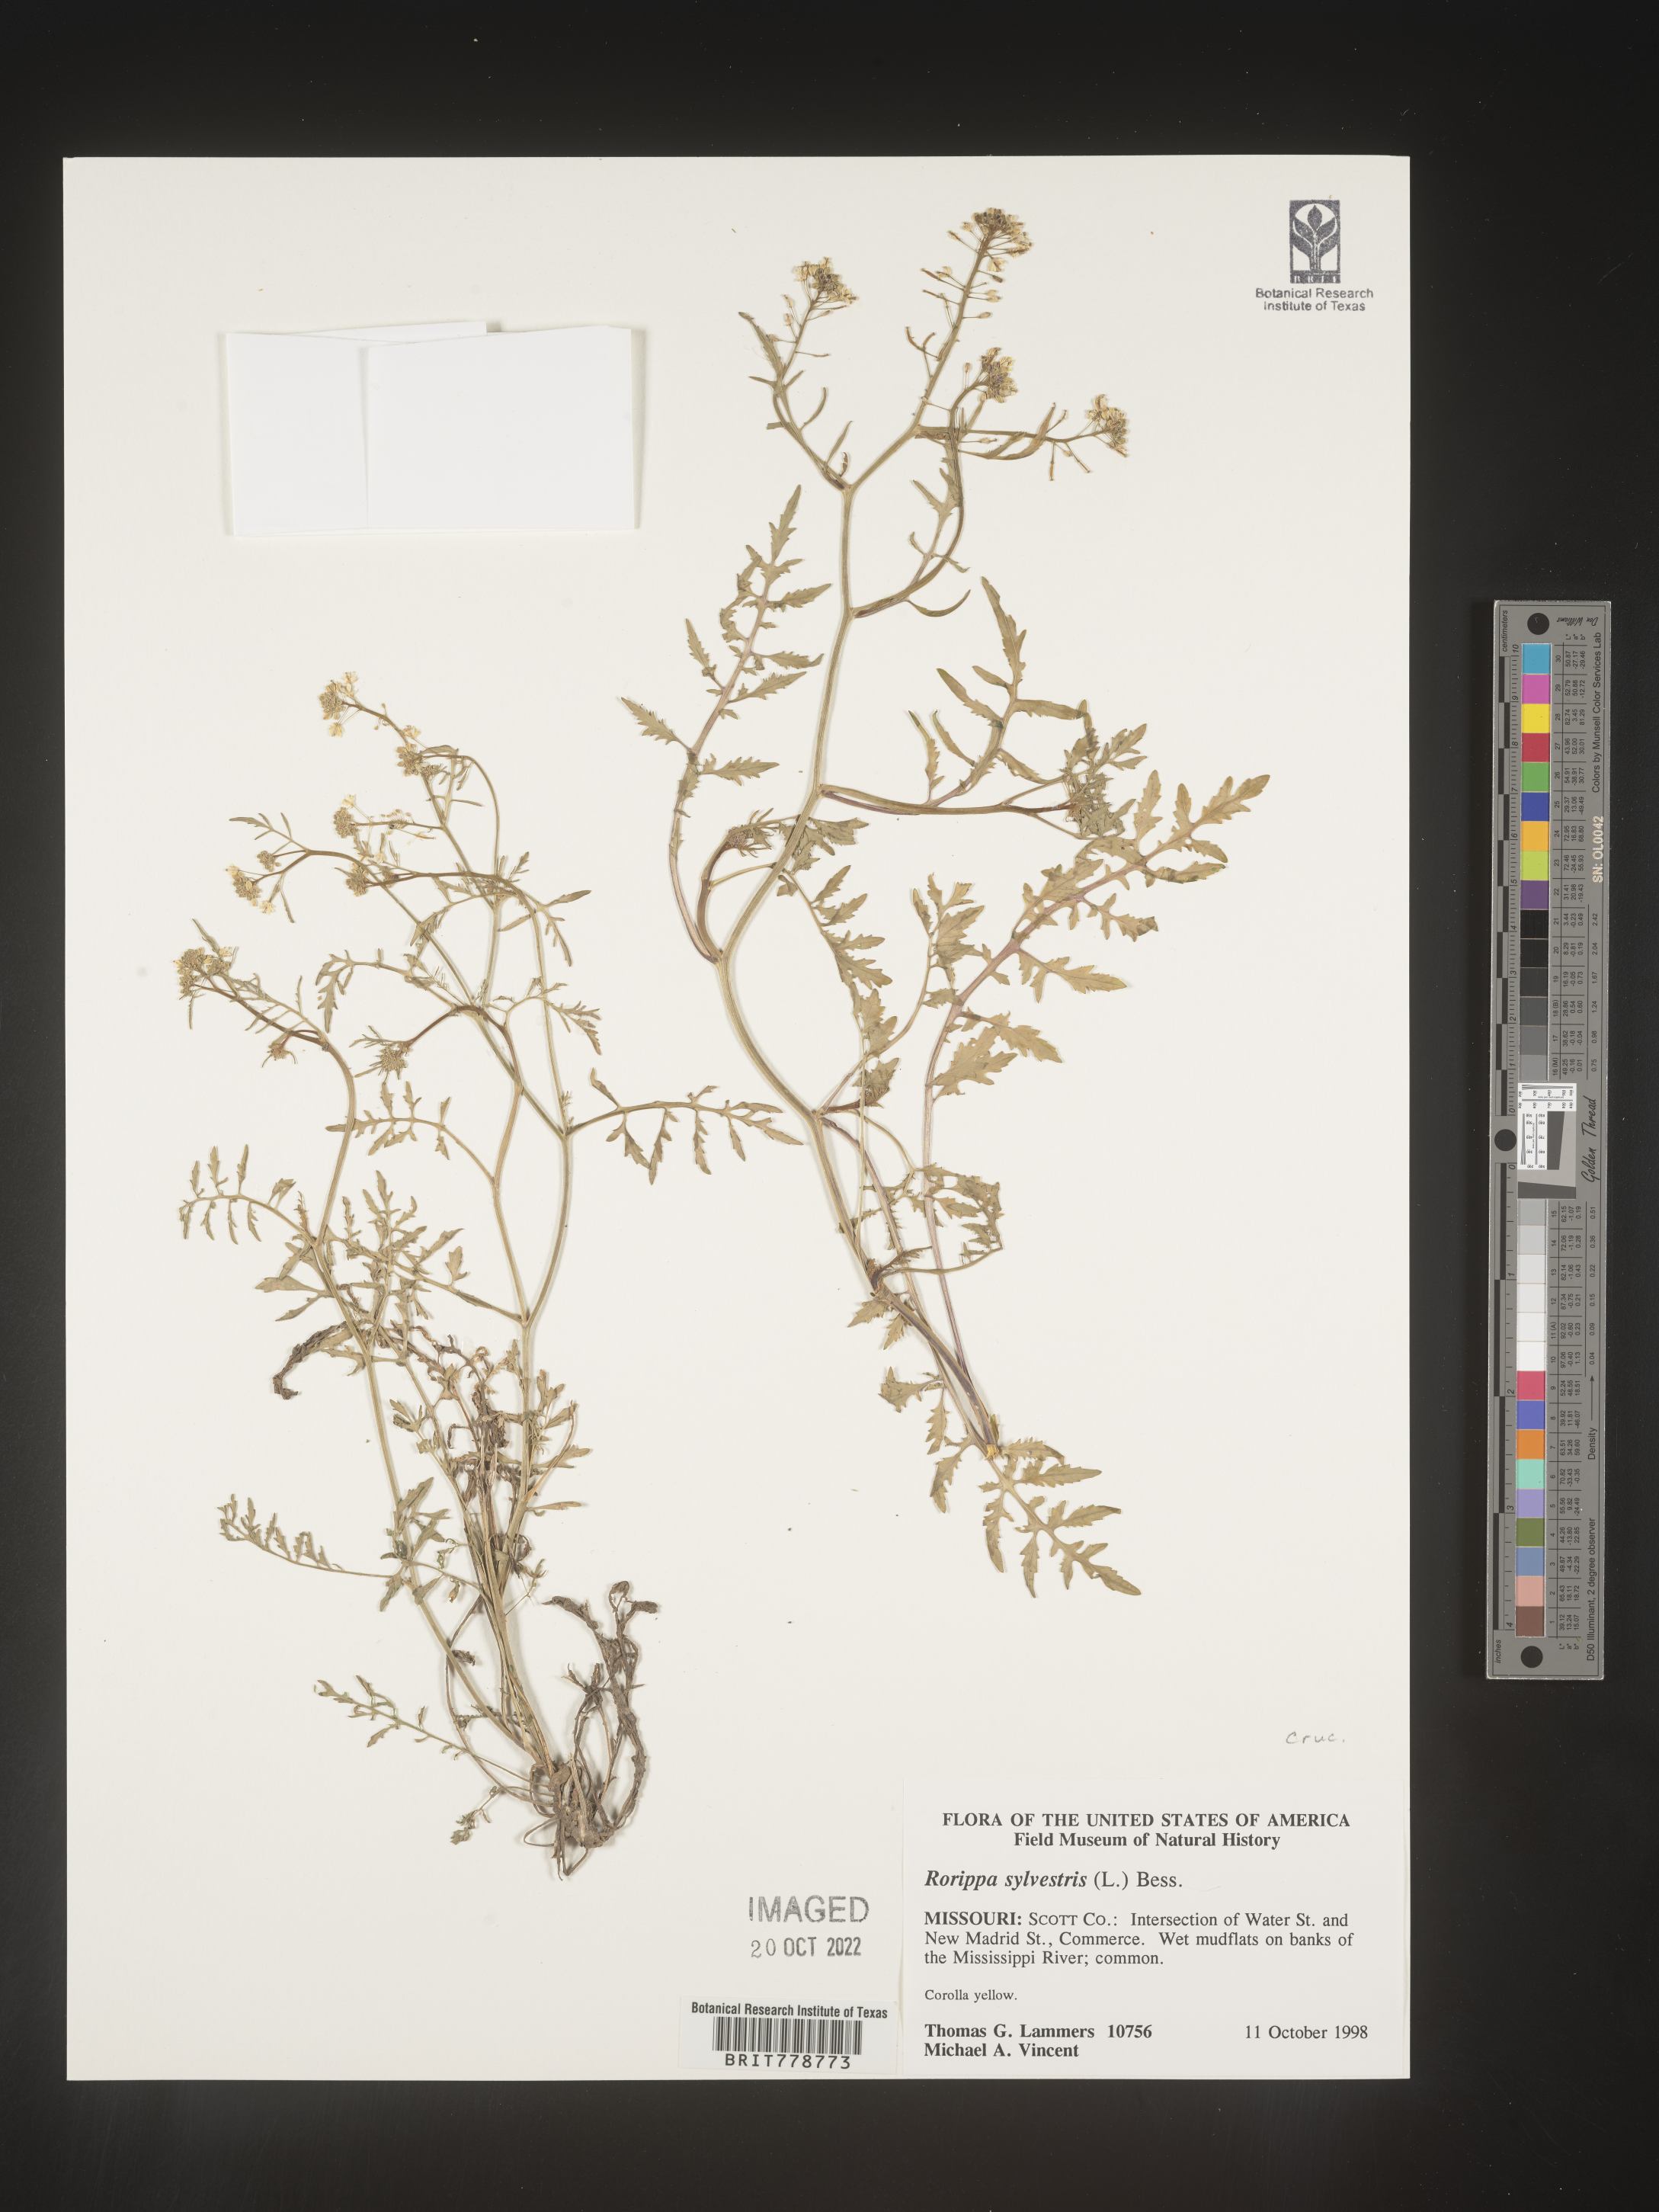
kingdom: Plantae
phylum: Tracheophyta
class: Magnoliopsida
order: Brassicales
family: Brassicaceae
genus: Rorippa
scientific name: Rorippa sylvestris
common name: Creeping yellowcress
